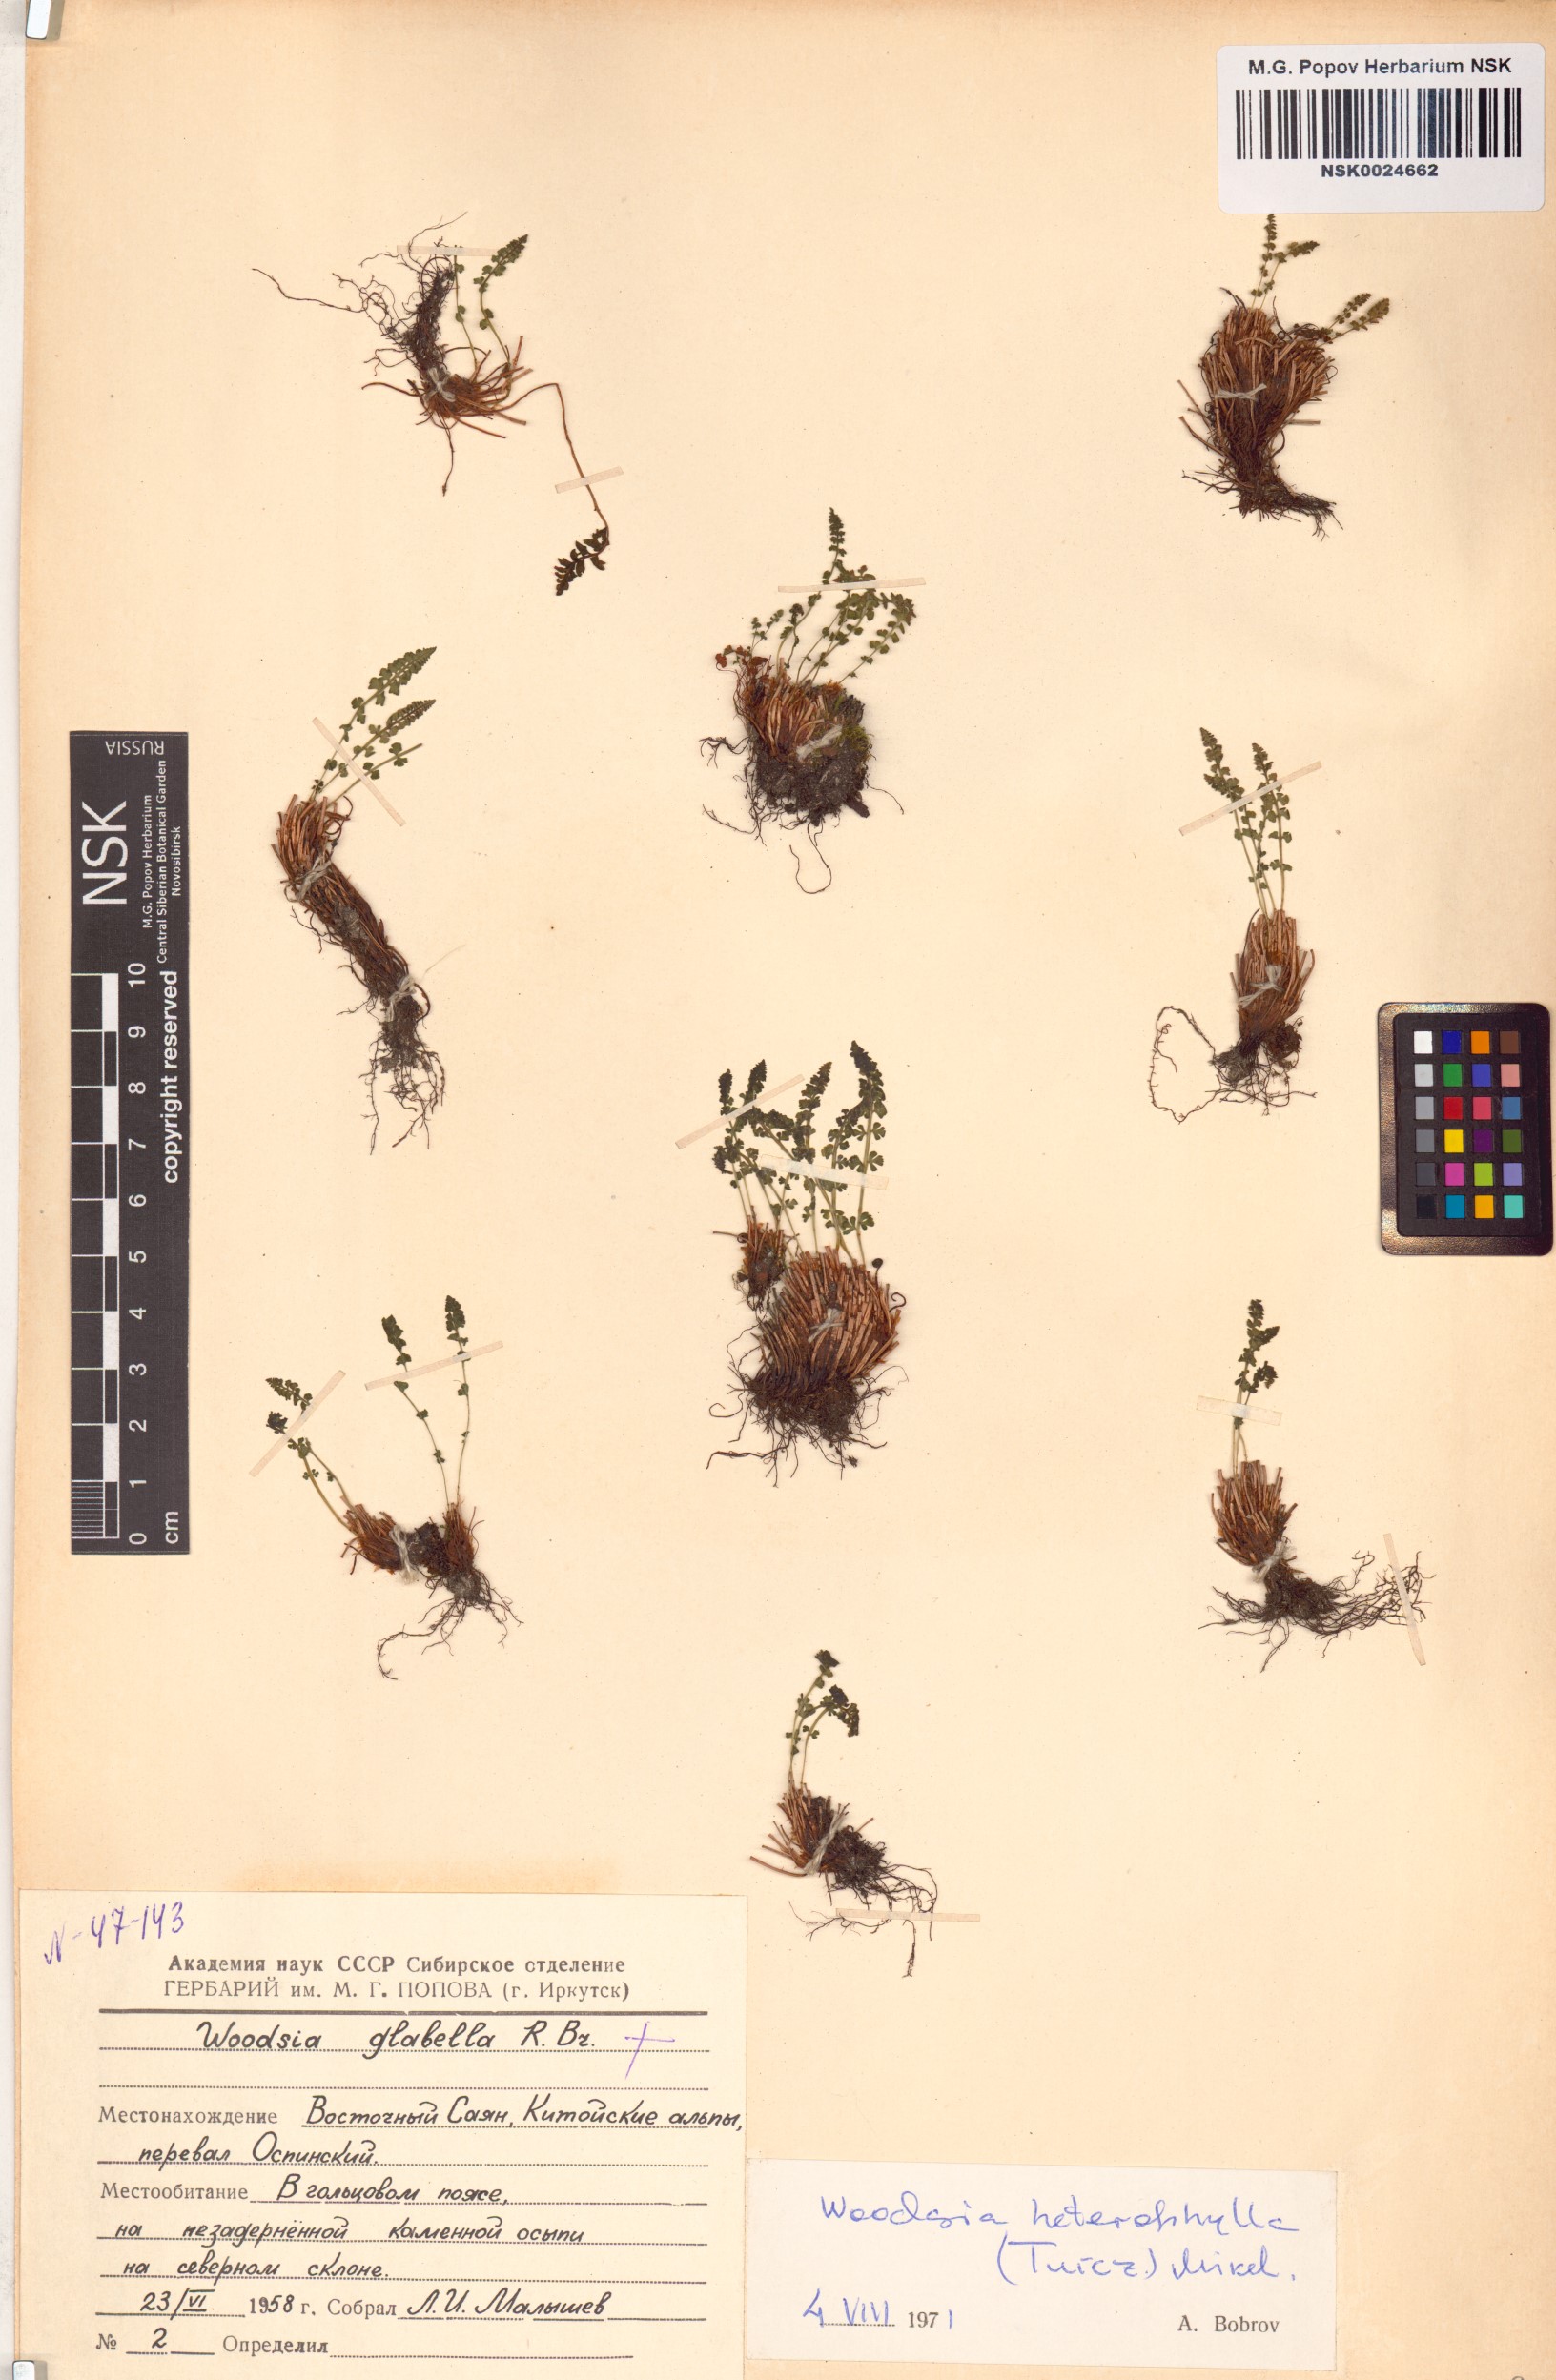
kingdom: Plantae
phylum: Tracheophyta
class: Polypodiopsida
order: Polypodiales
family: Woodsiaceae
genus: Woodsia
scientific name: Woodsia pulchella
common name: Graceful woodsia
